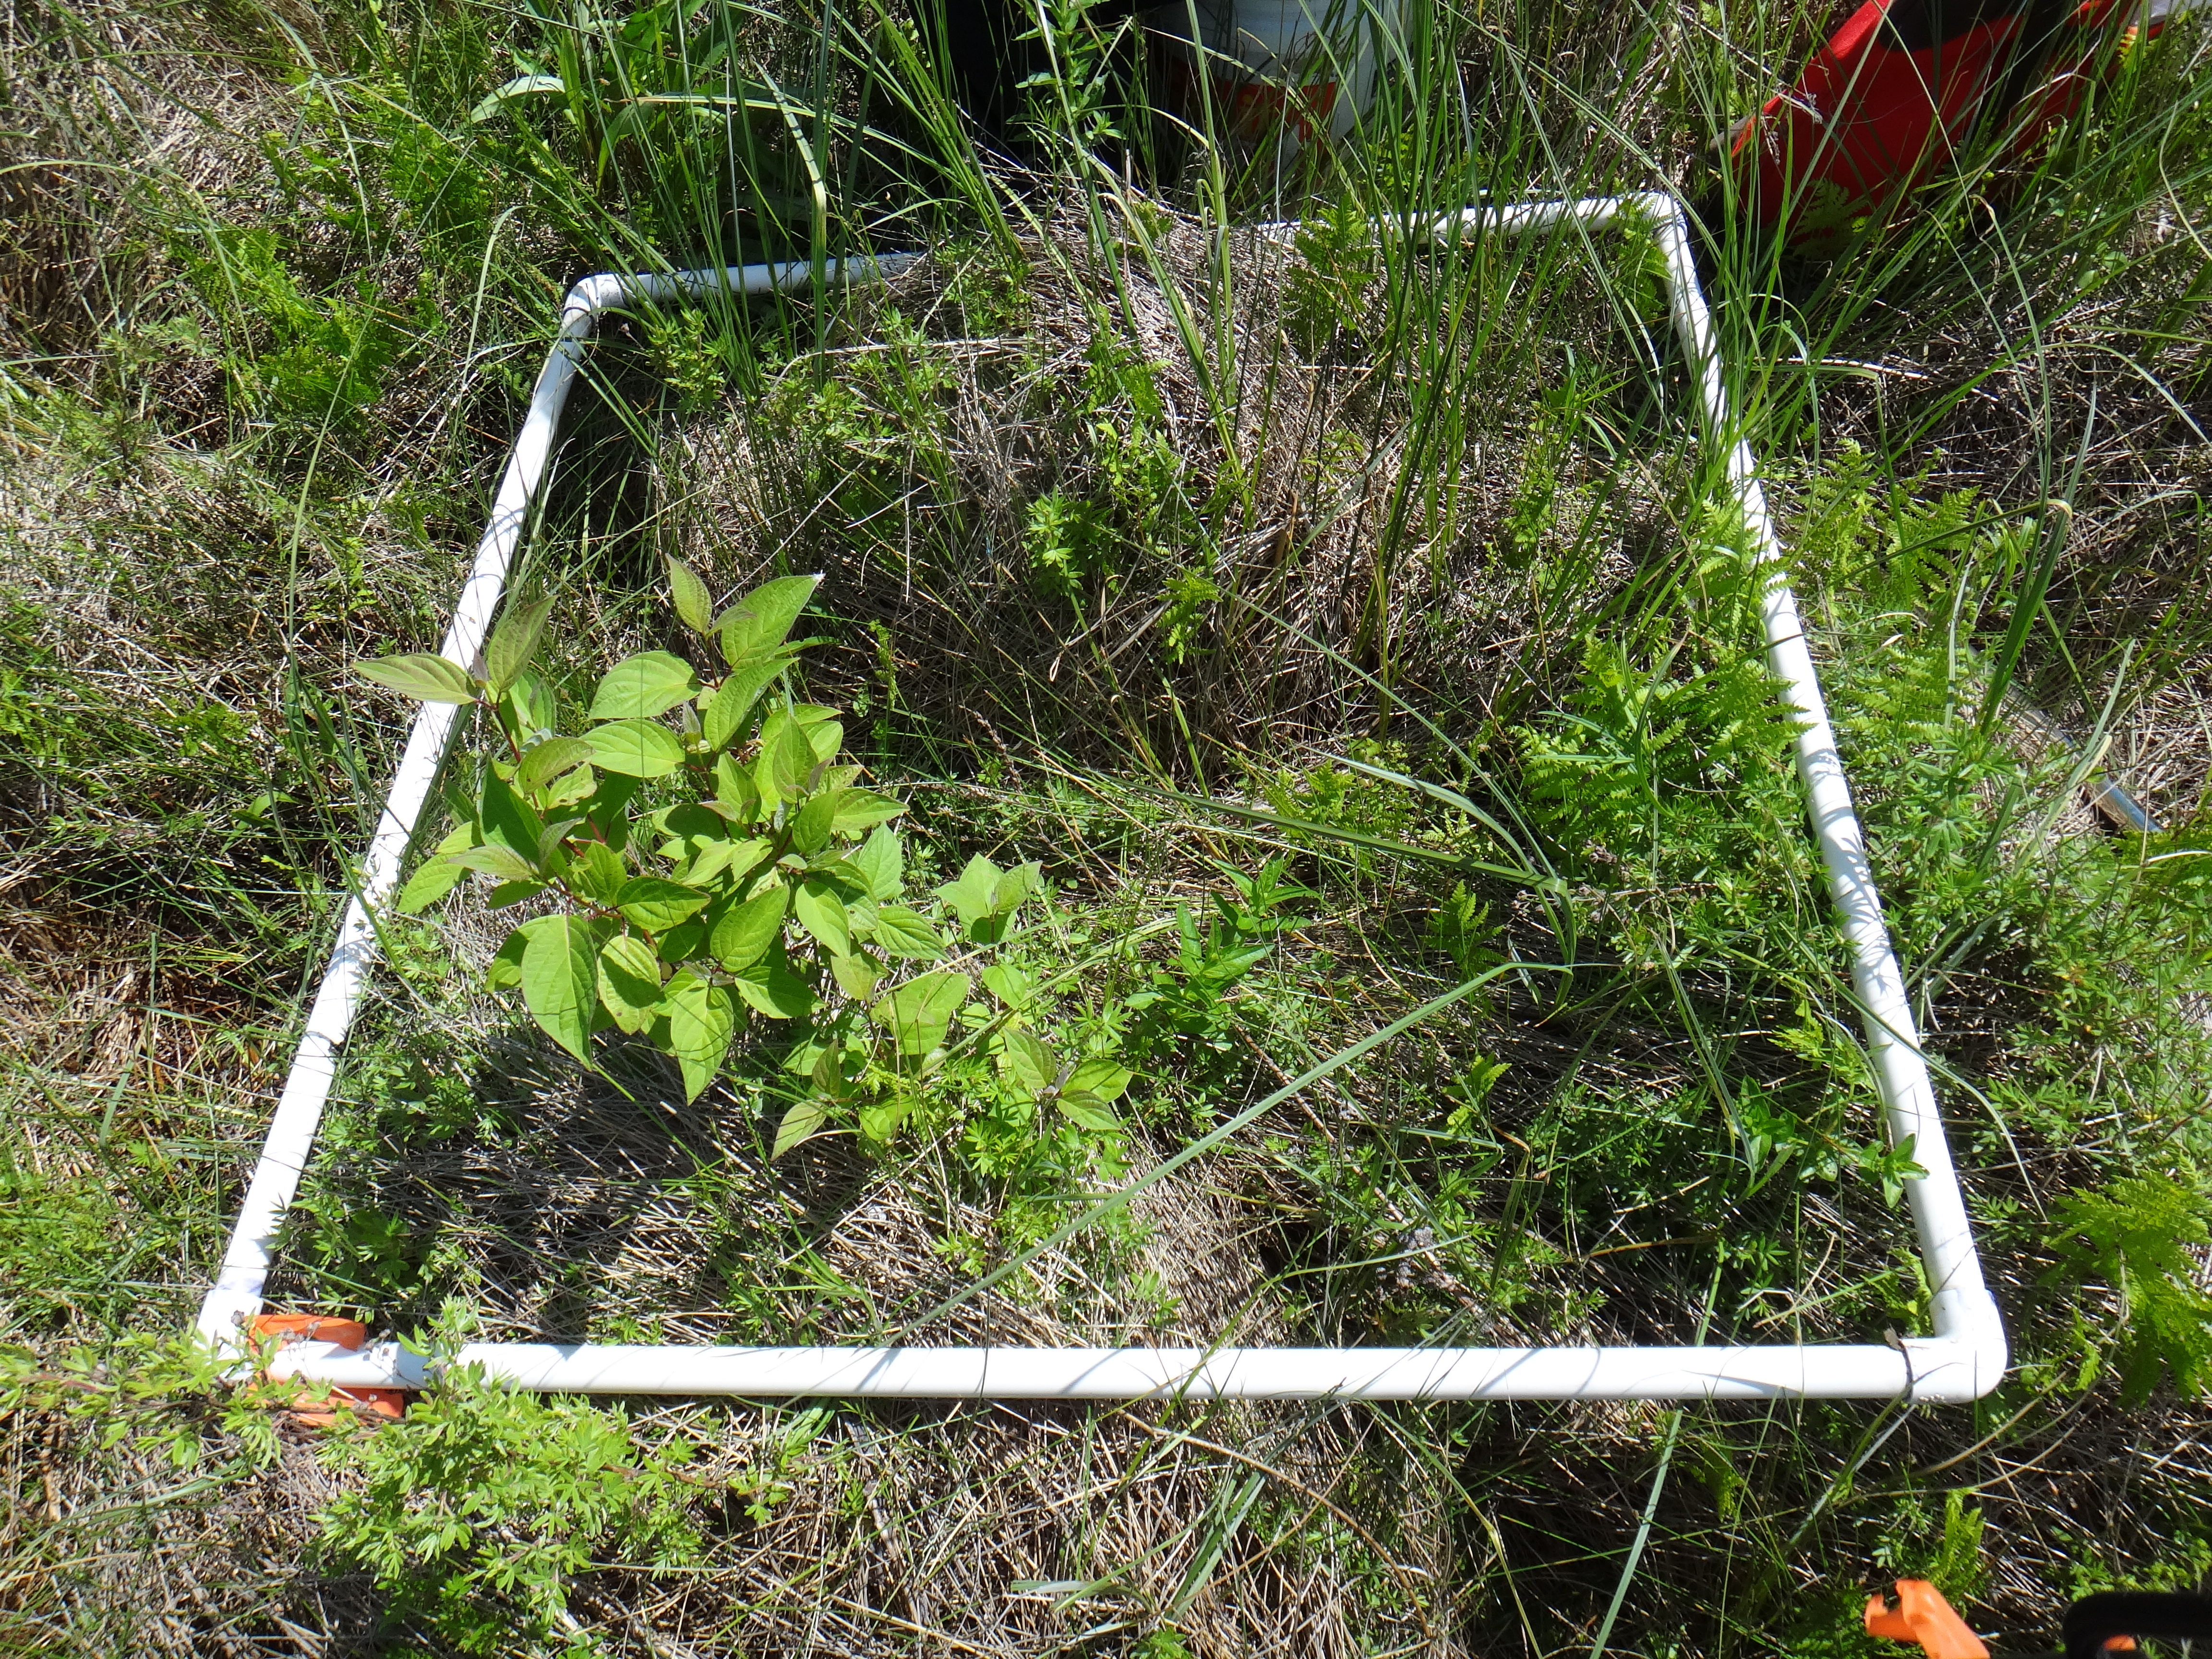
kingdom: Plantae
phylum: Tracheophyta
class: Magnoliopsida
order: Rosales
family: Rosaceae
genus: Dasiphora
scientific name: Dasiphora fruticosa
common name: Shrubby cinquefoil
